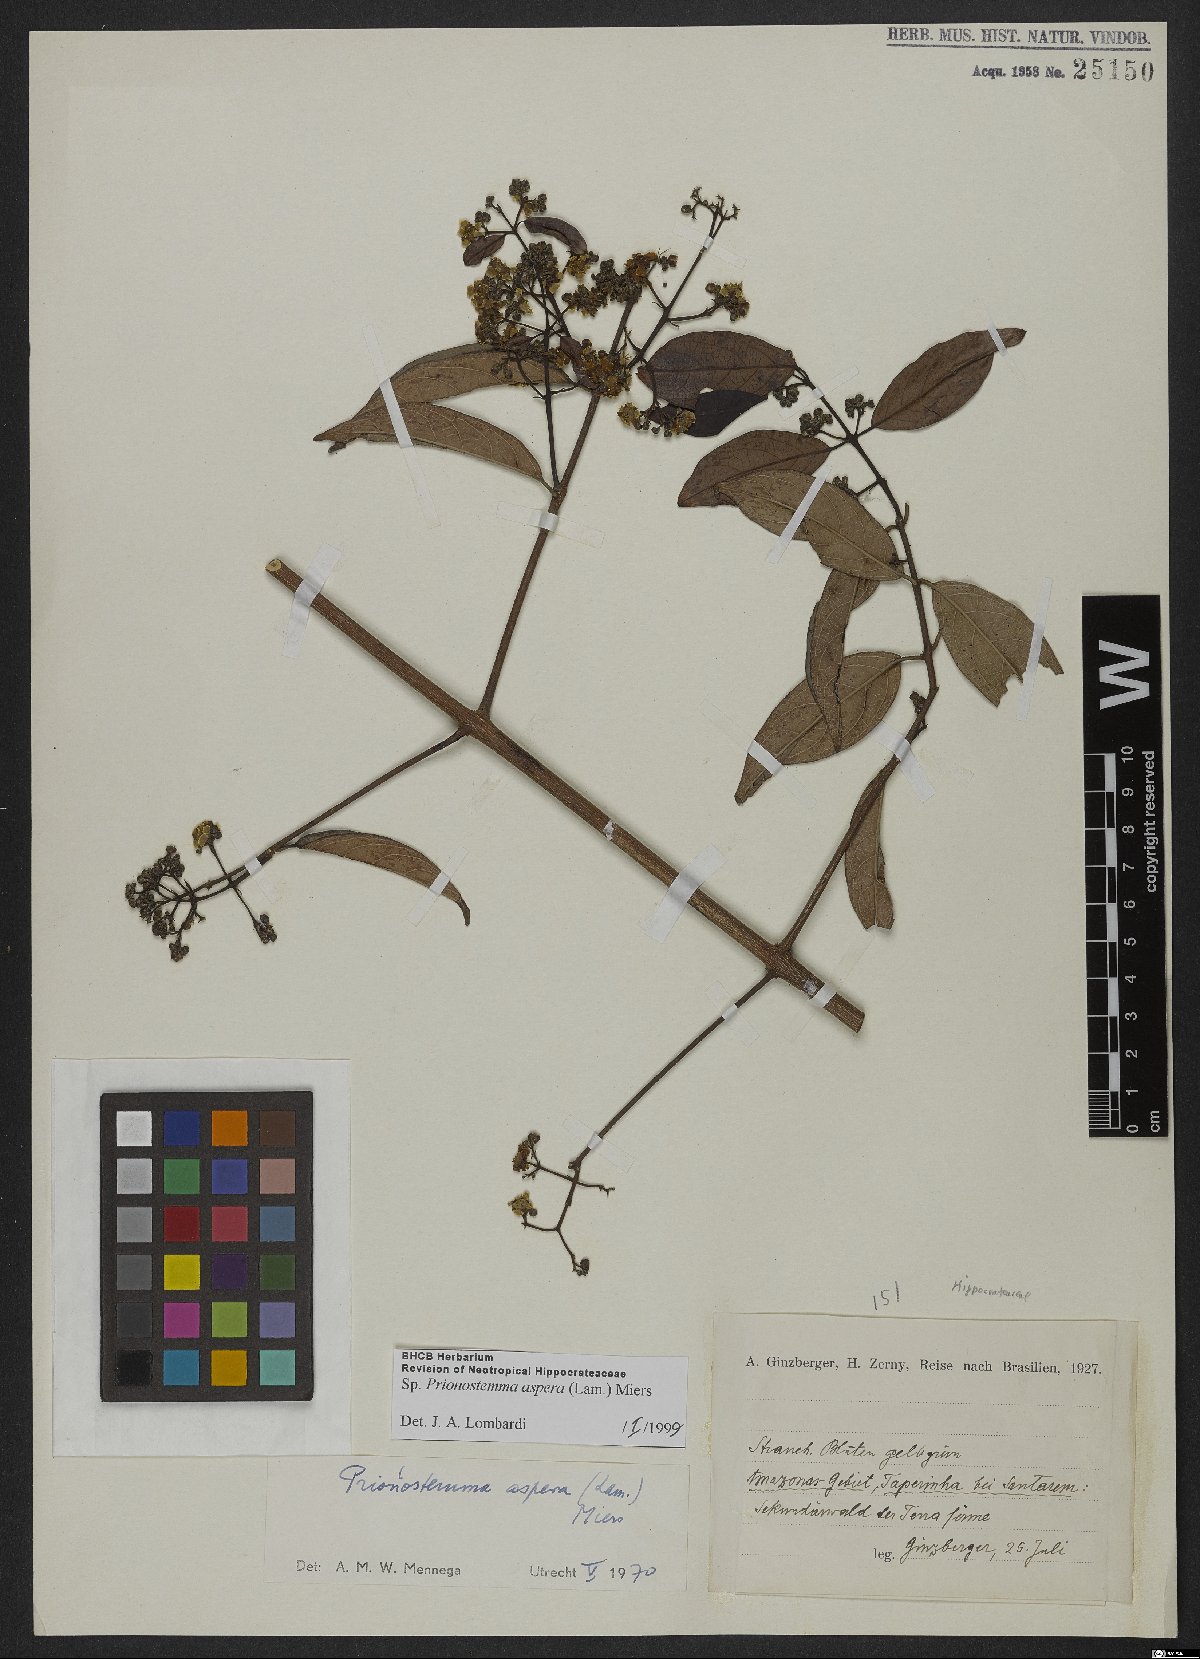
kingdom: Plantae
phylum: Tracheophyta
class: Magnoliopsida
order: Celastrales
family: Celastraceae
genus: Prionostemma
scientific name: Prionostemma aspera
